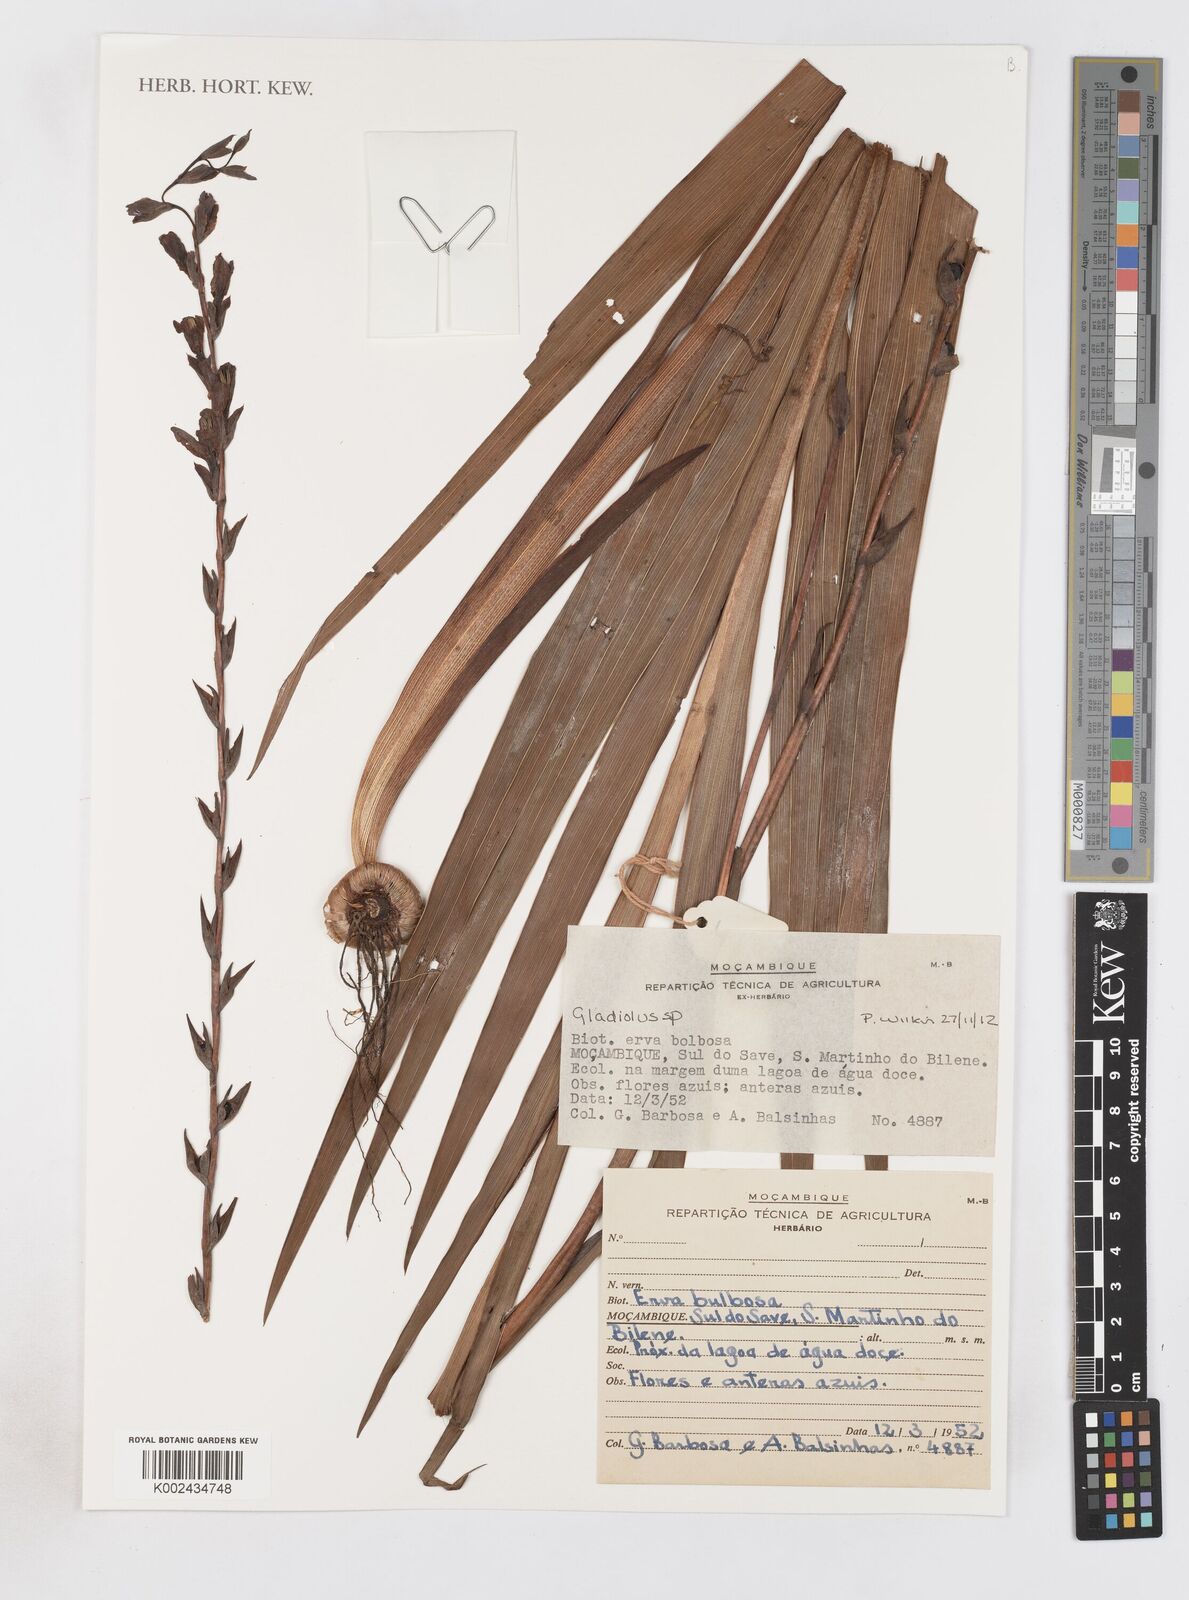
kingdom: Plantae
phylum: Tracheophyta
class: Liliopsida
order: Asparagales
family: Iridaceae
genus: Gladiolus
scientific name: Gladiolus
